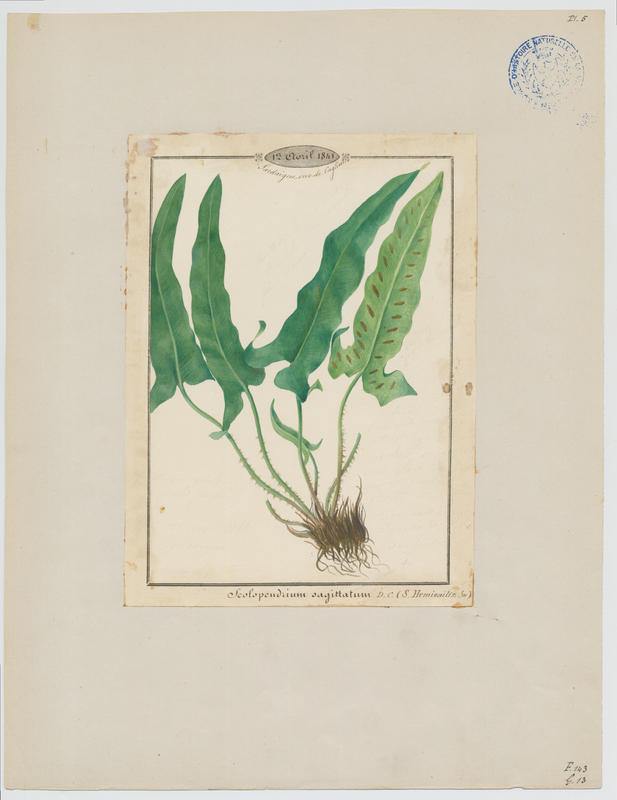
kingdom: Plantae
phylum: Tracheophyta
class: Polypodiopsida
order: Polypodiales
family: Aspleniaceae
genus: Asplenium
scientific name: Asplenium sagittatum
